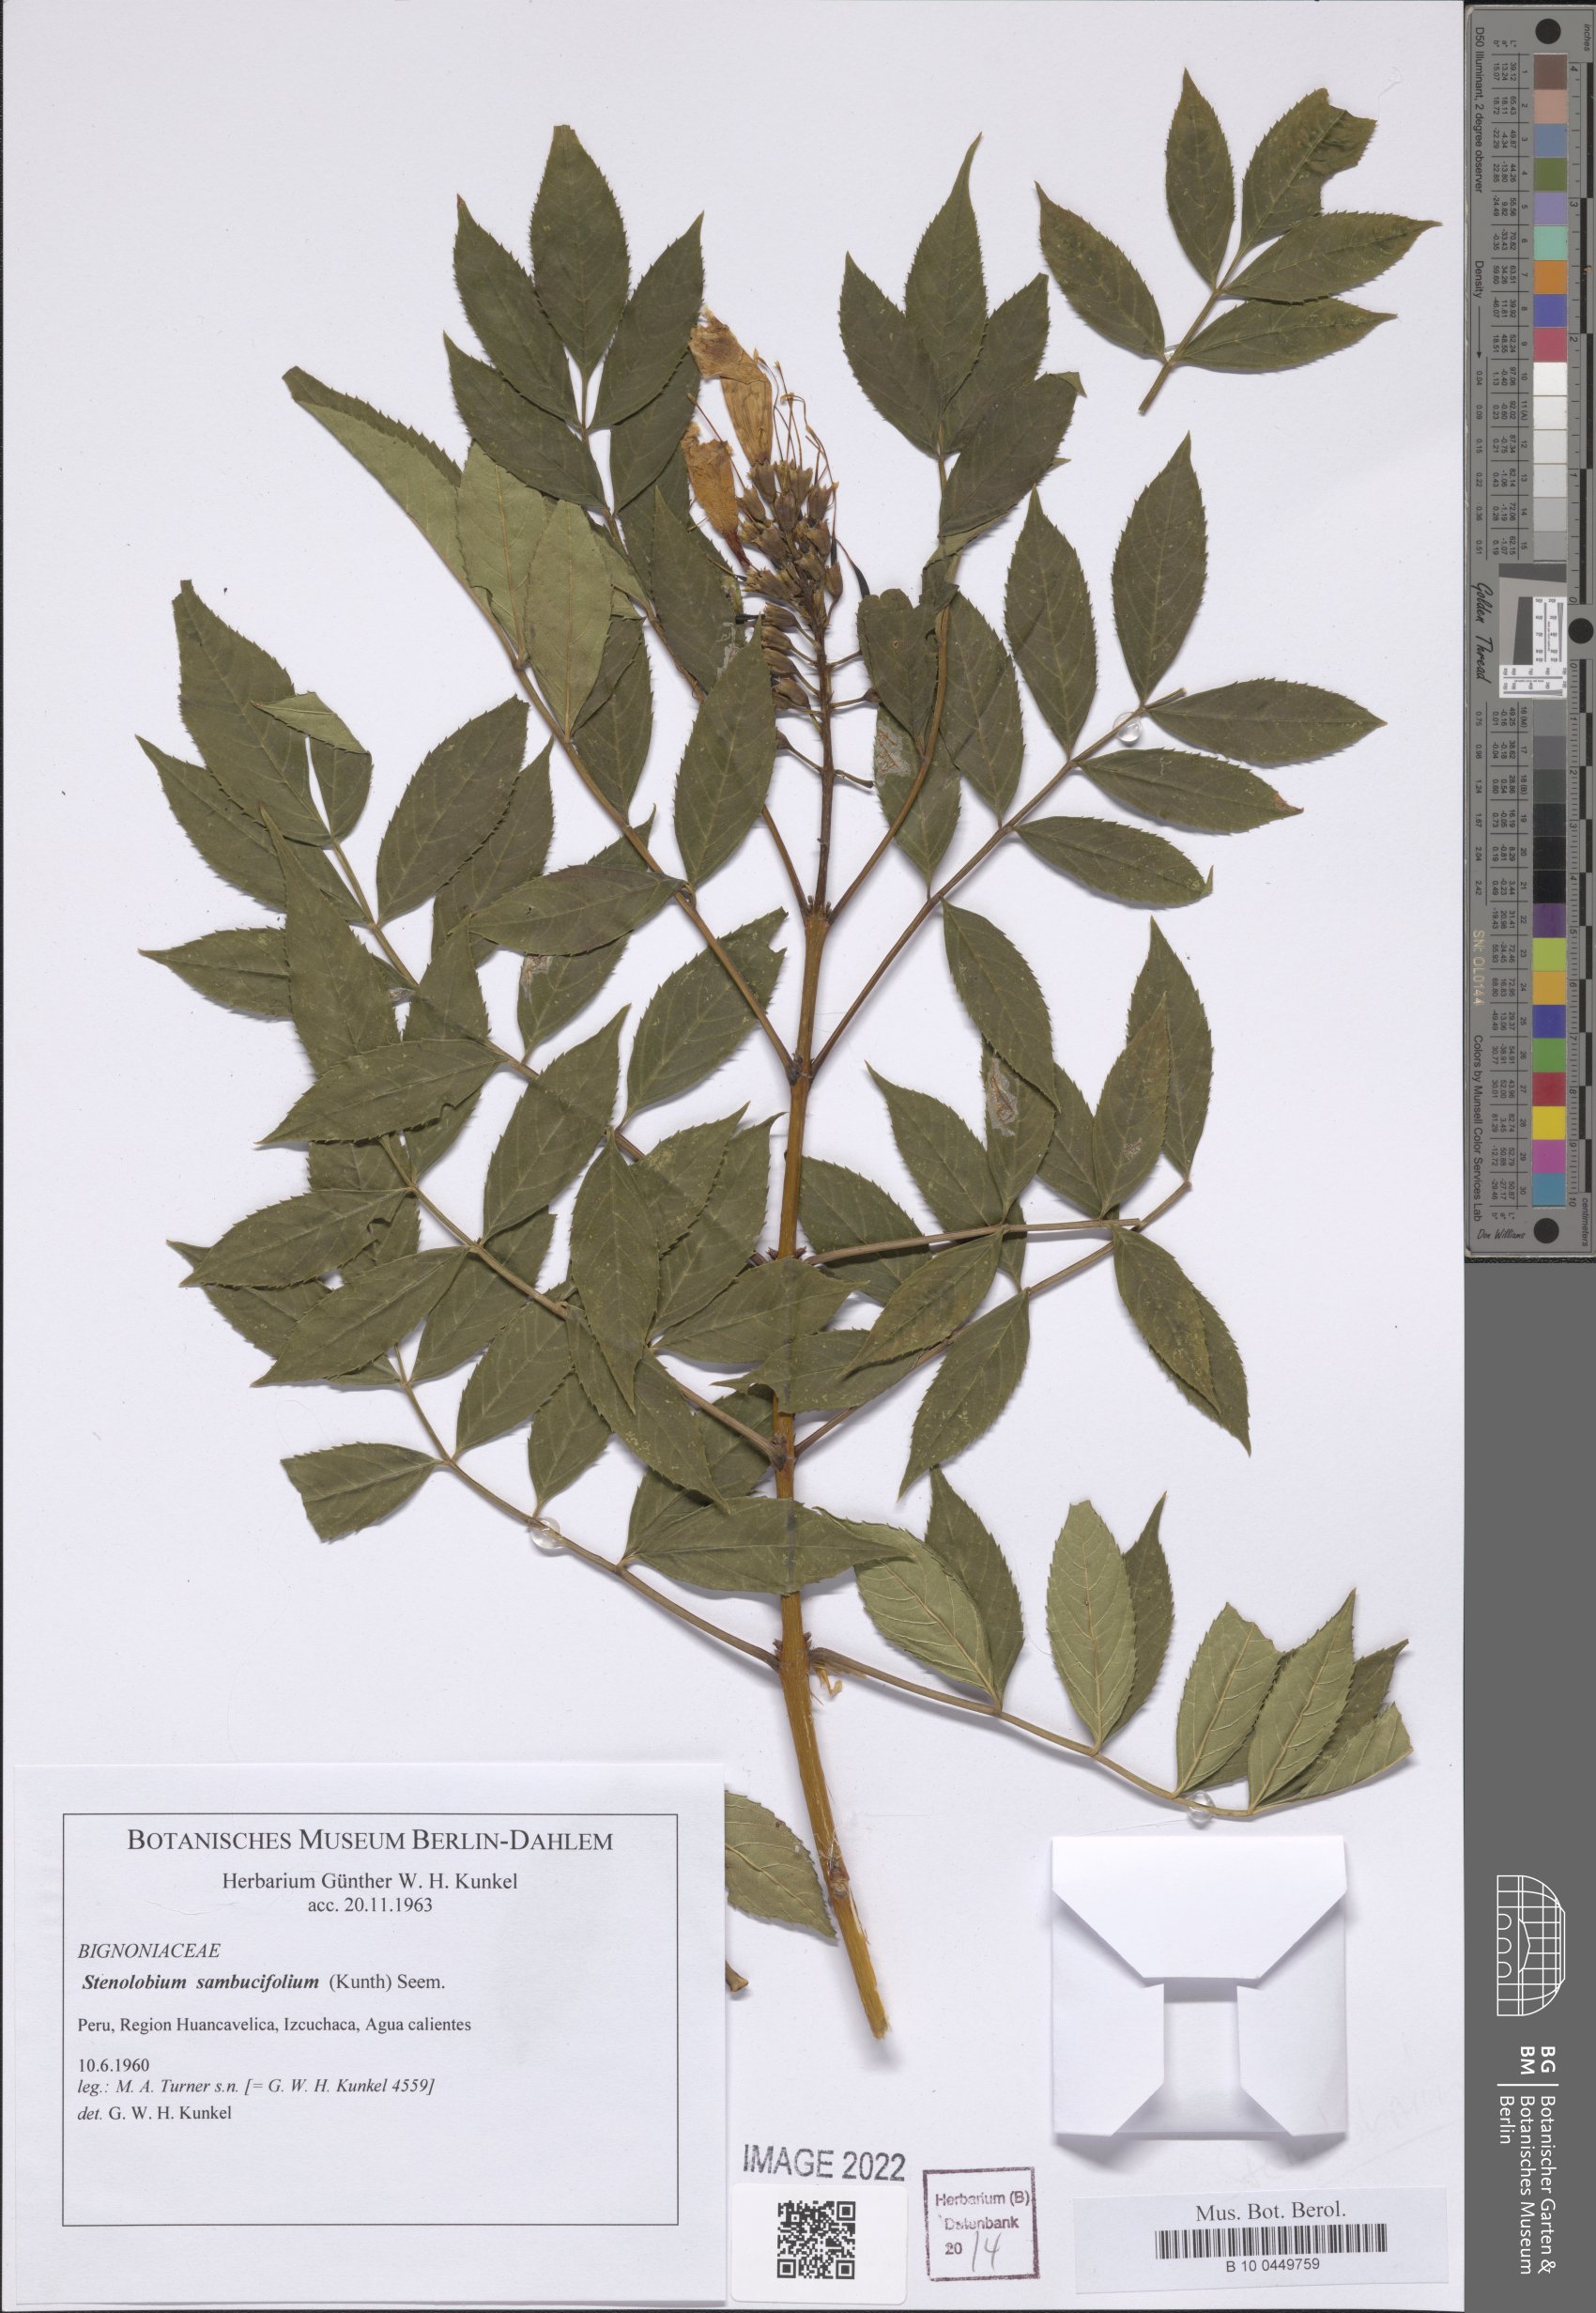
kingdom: Plantae
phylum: Tracheophyta
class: Magnoliopsida
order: Lamiales
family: Bignoniaceae
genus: Tecoma
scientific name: Tecoma stans
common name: Yellow trumpetbush
